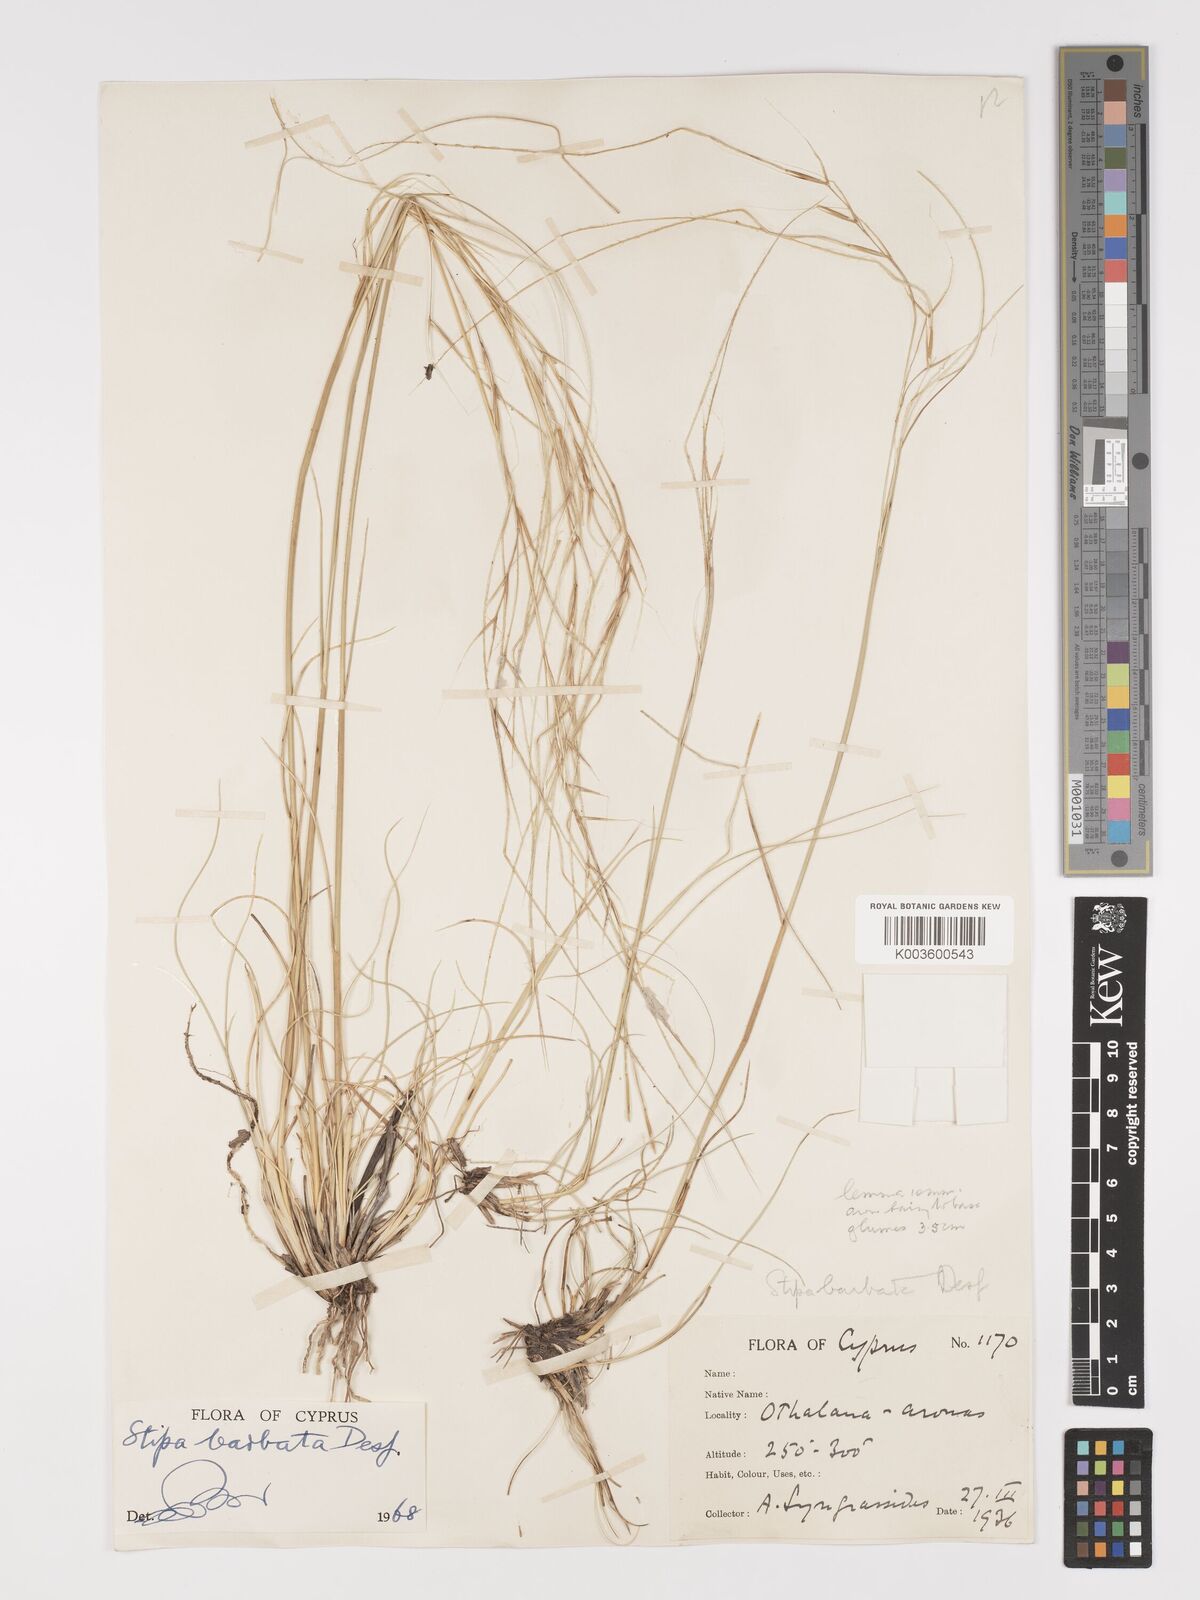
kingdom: Plantae
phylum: Tracheophyta
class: Liliopsida
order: Poales
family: Poaceae
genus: Stipa
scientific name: Stipa barbata
